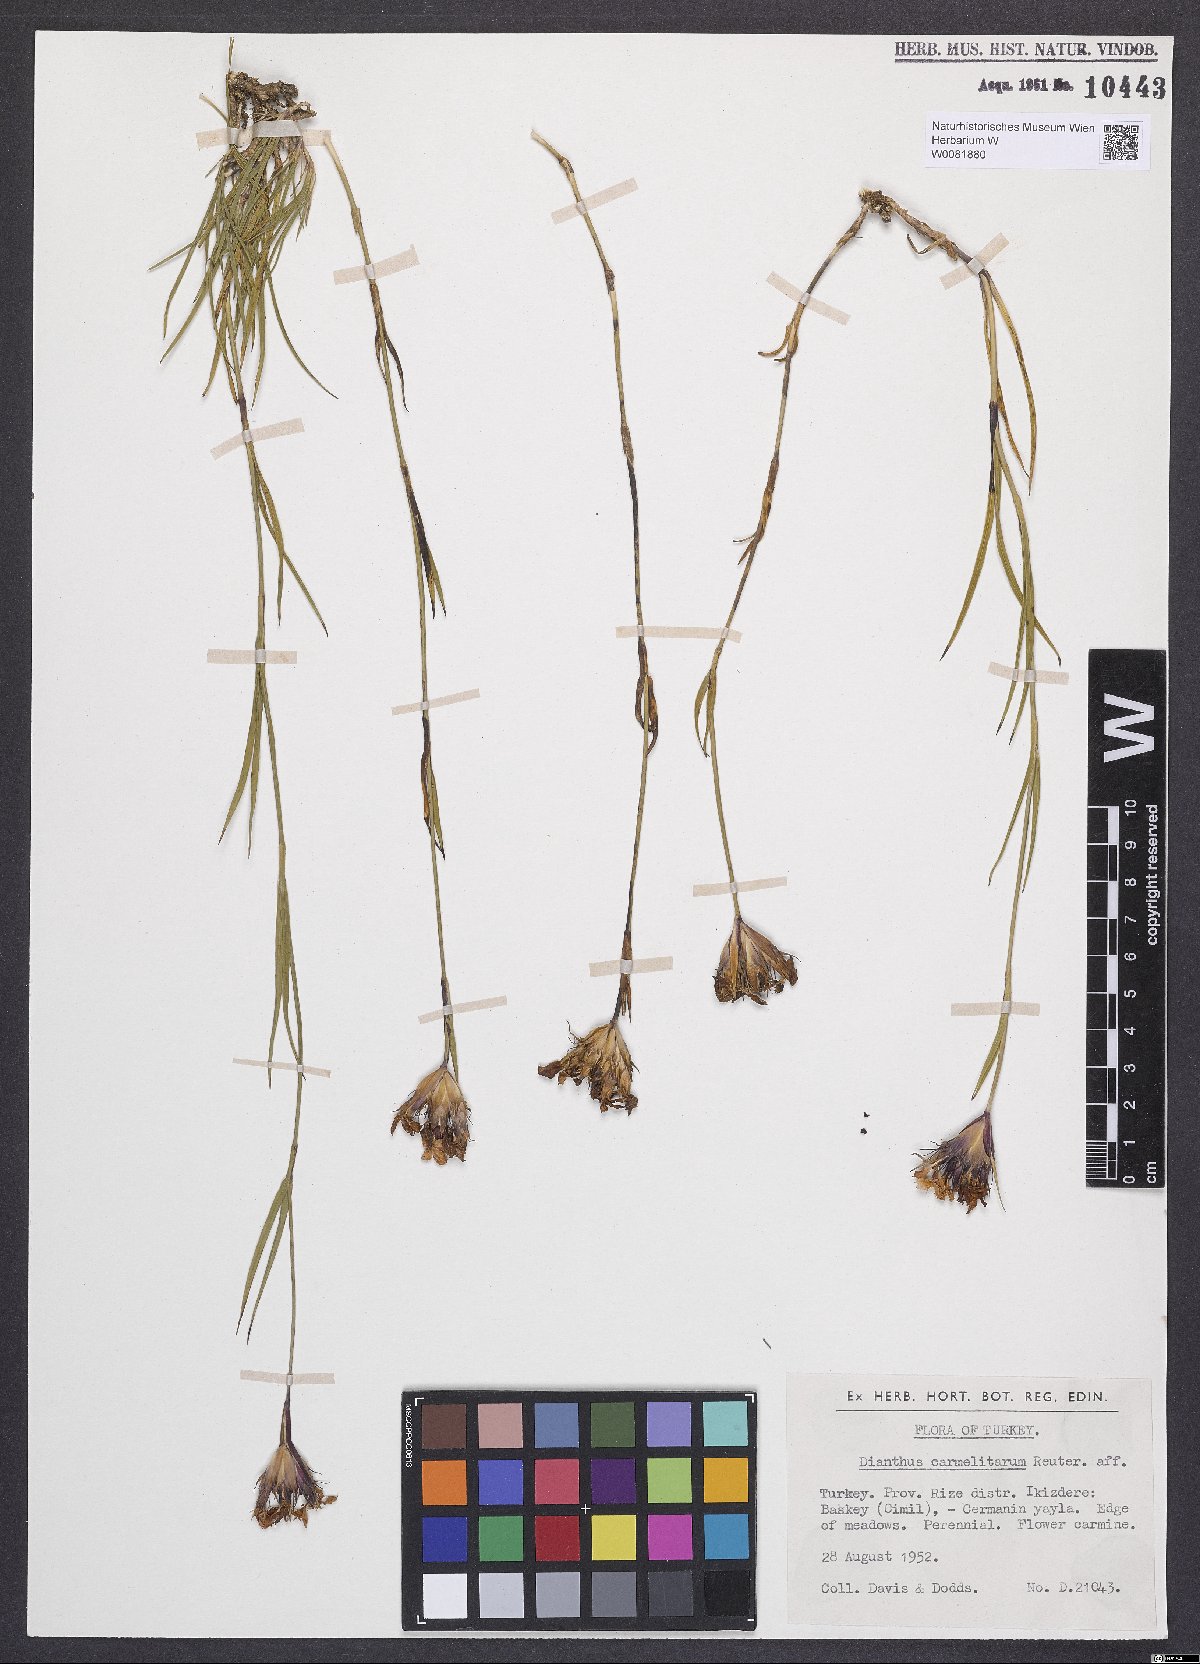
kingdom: Plantae
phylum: Tracheophyta
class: Magnoliopsida
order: Caryophyllales
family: Caryophyllaceae
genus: Dianthus
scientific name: Dianthus carmelitarum
